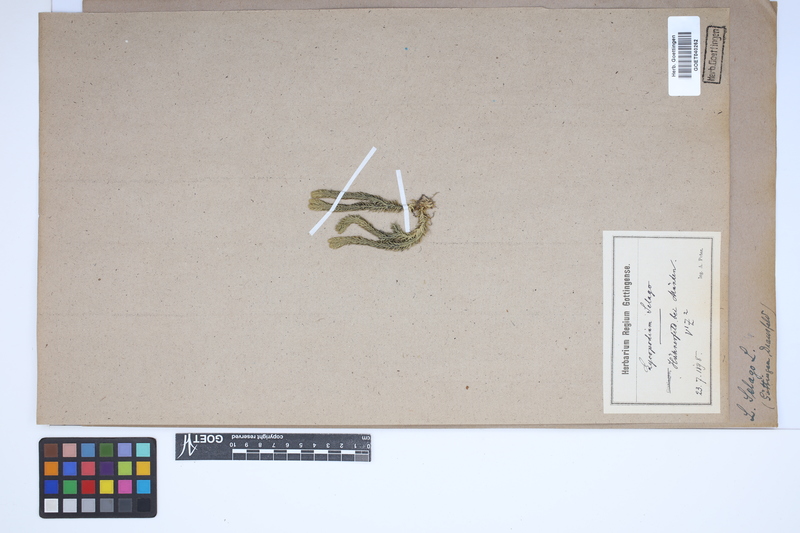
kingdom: Plantae
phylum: Tracheophyta
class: Lycopodiopsida
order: Lycopodiales
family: Lycopodiaceae
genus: Huperzia
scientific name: Huperzia selago
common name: Northern firmoss
